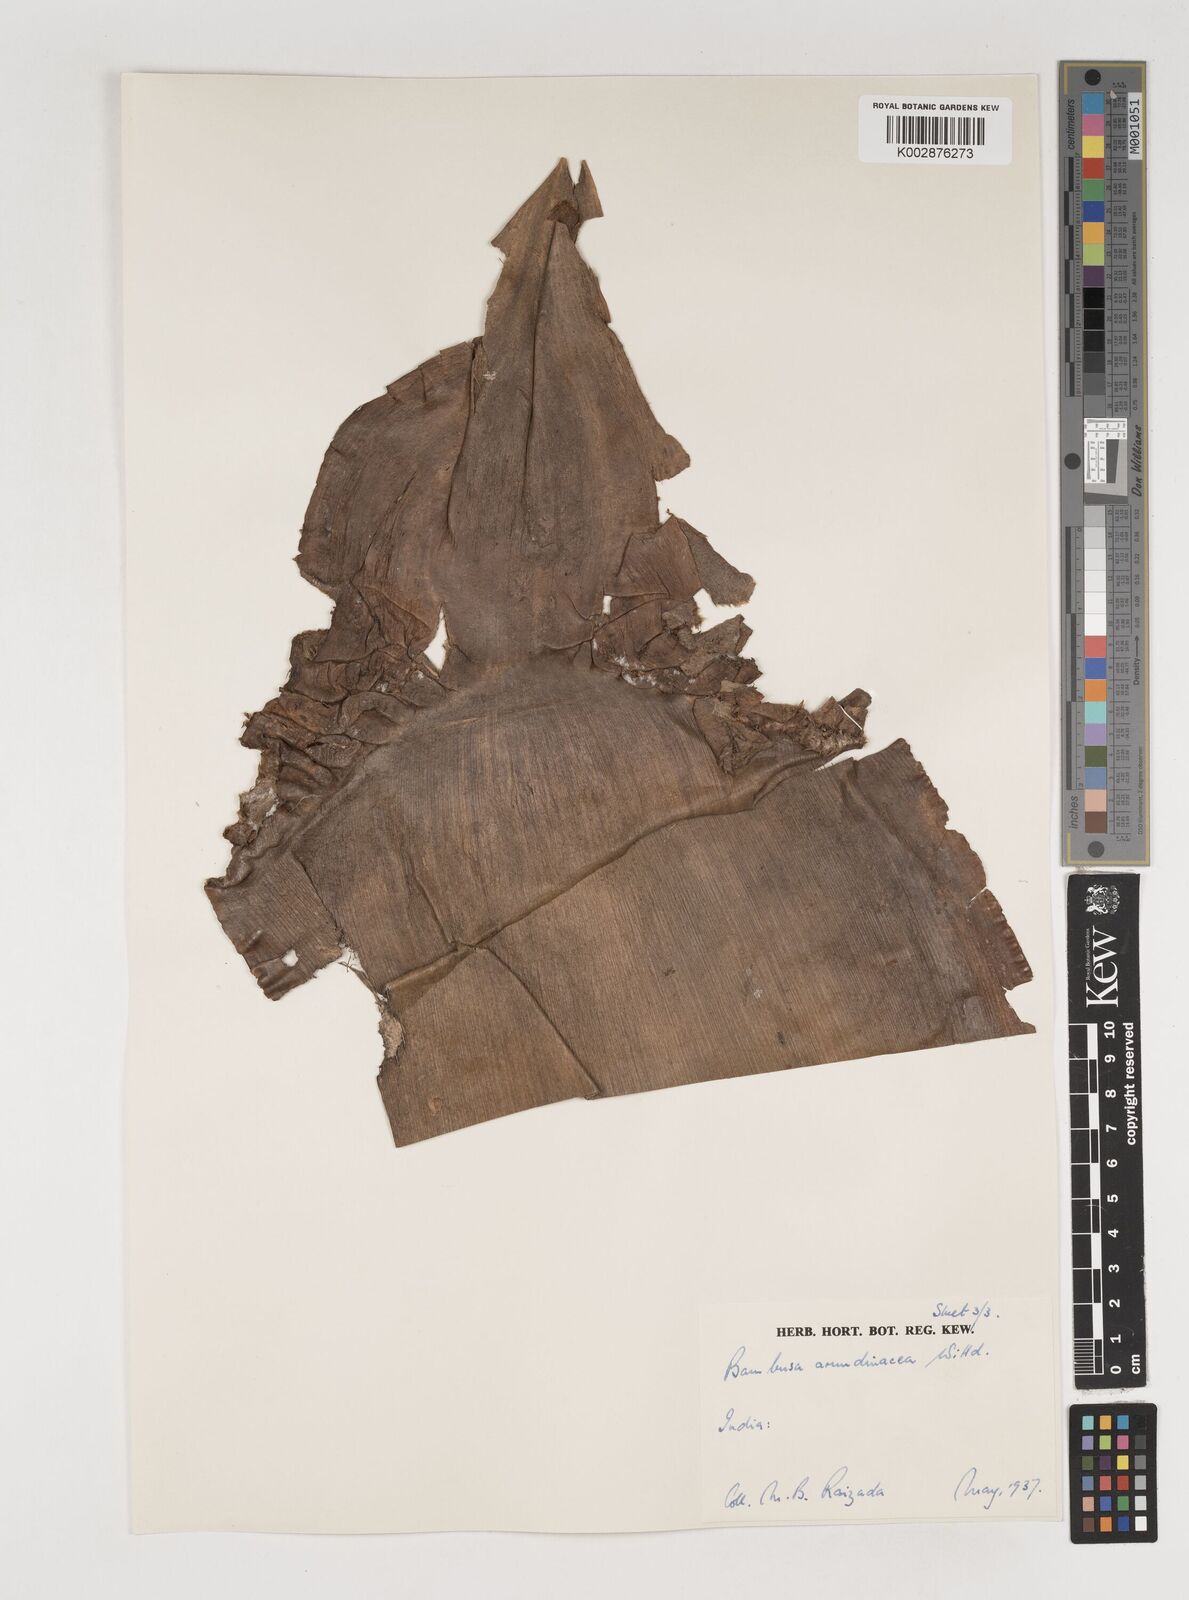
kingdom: Plantae
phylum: Tracheophyta
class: Liliopsida
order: Poales
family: Poaceae
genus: Bambusa
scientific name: Bambusa bambos
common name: Indian thorny bamboo
